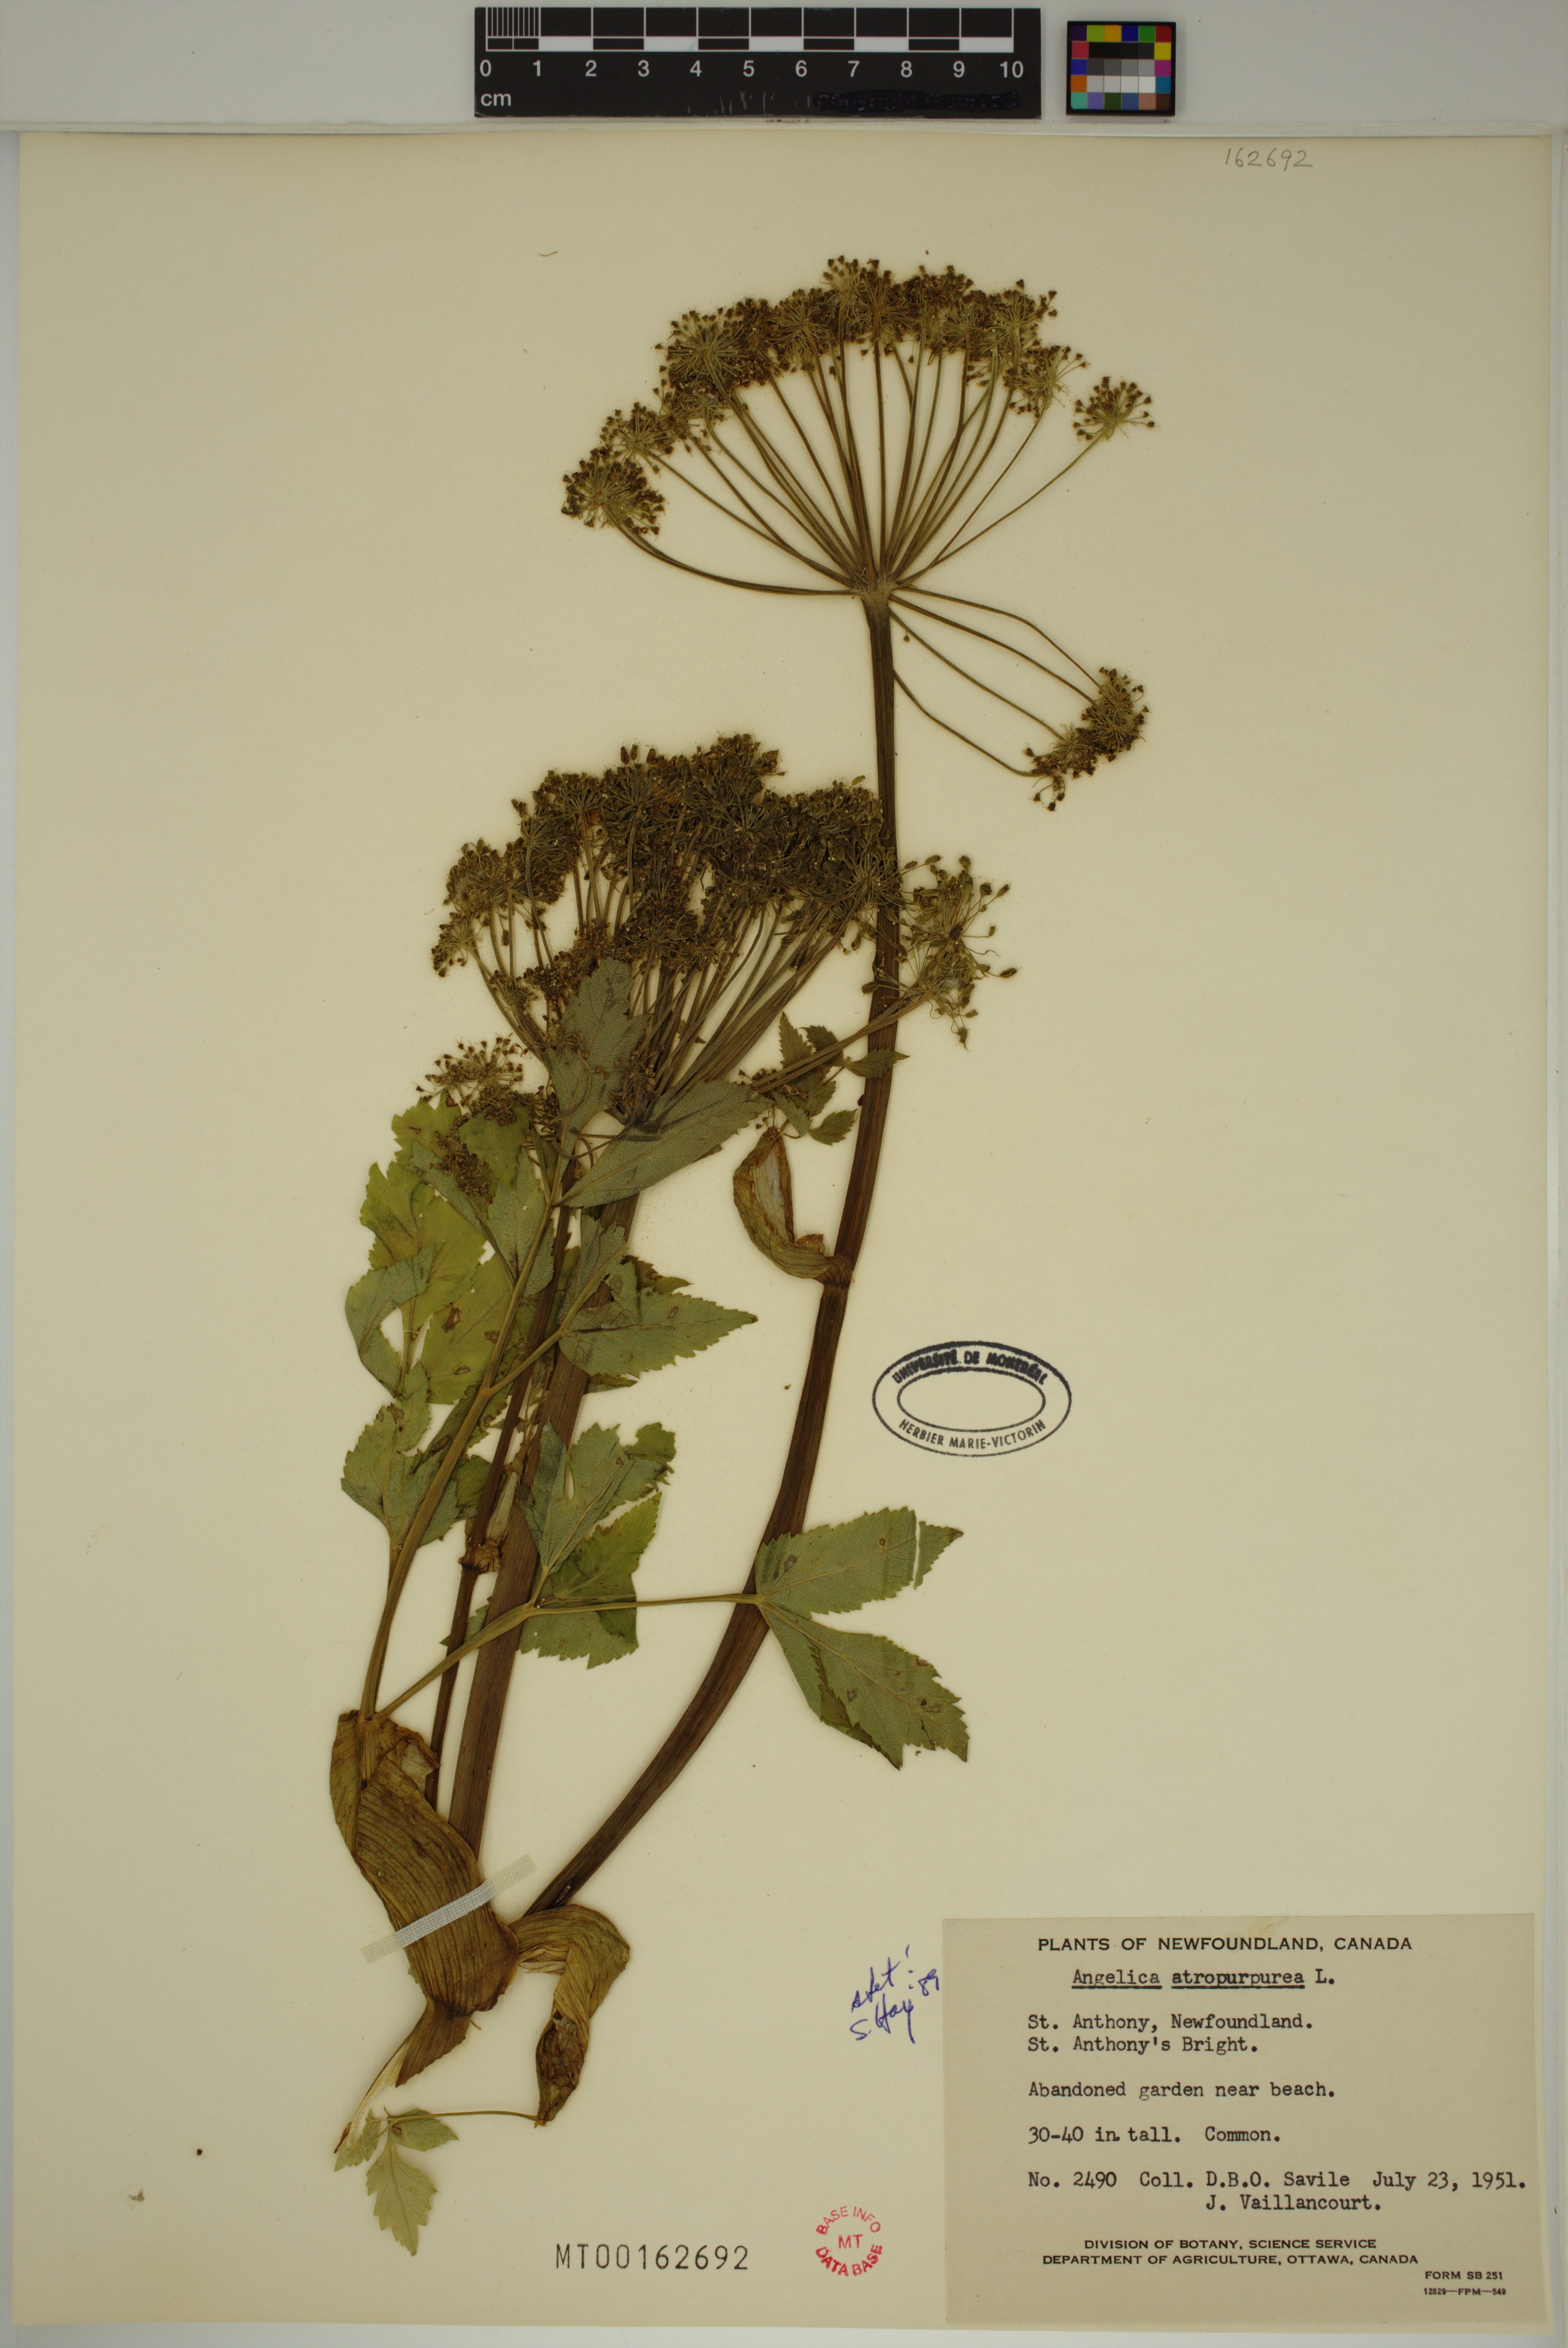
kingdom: Plantae
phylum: Tracheophyta
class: Magnoliopsida
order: Apiales
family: Apiaceae
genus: Angelica
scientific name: Angelica atropurpurea
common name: Great angelica
